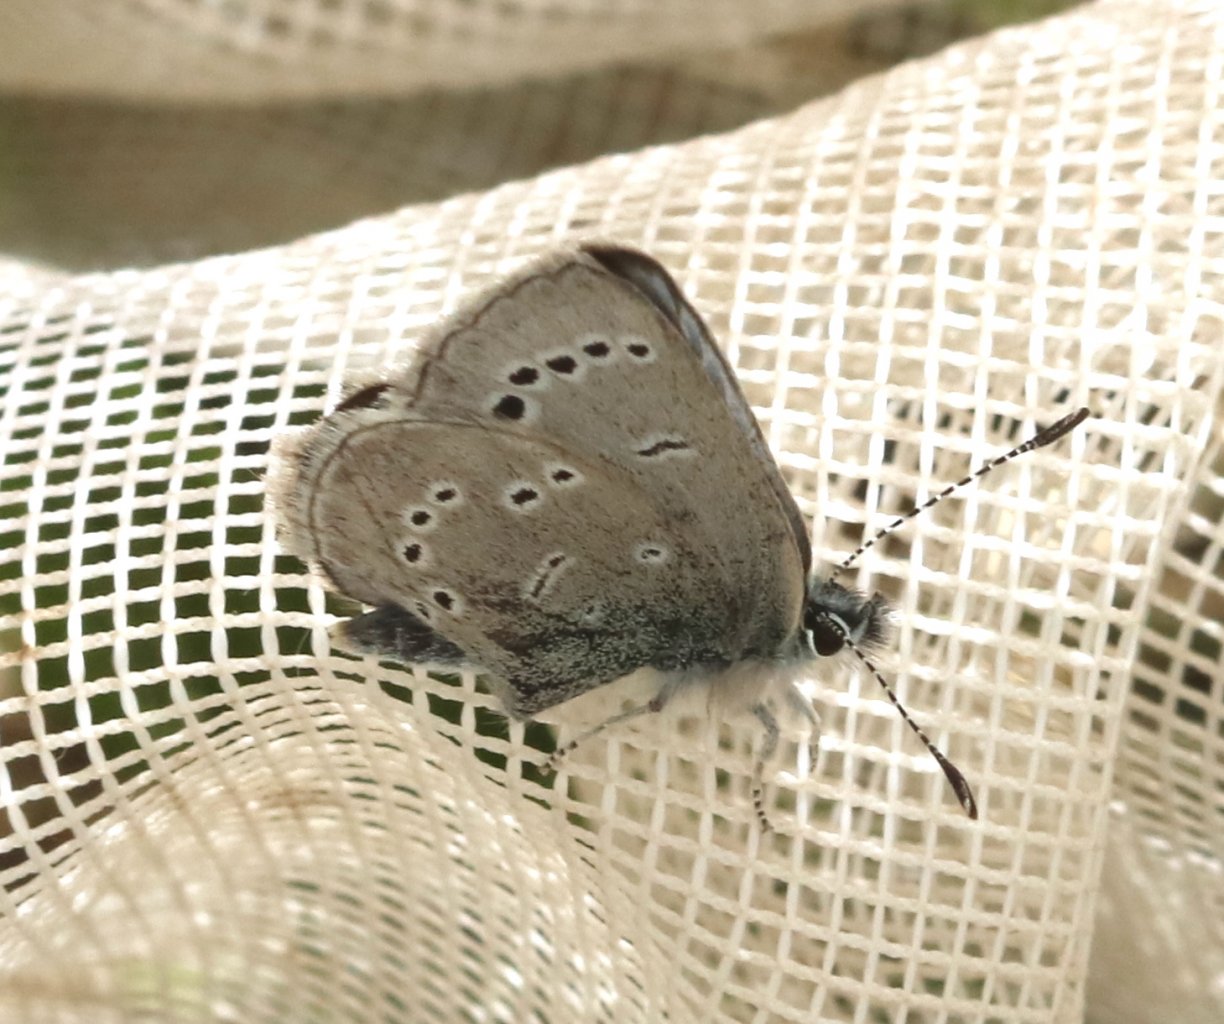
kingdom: Animalia
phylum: Arthropoda
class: Insecta
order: Lepidoptera
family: Lycaenidae
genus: Glaucopsyche
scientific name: Glaucopsyche lygdamus
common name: Silvery Blue
